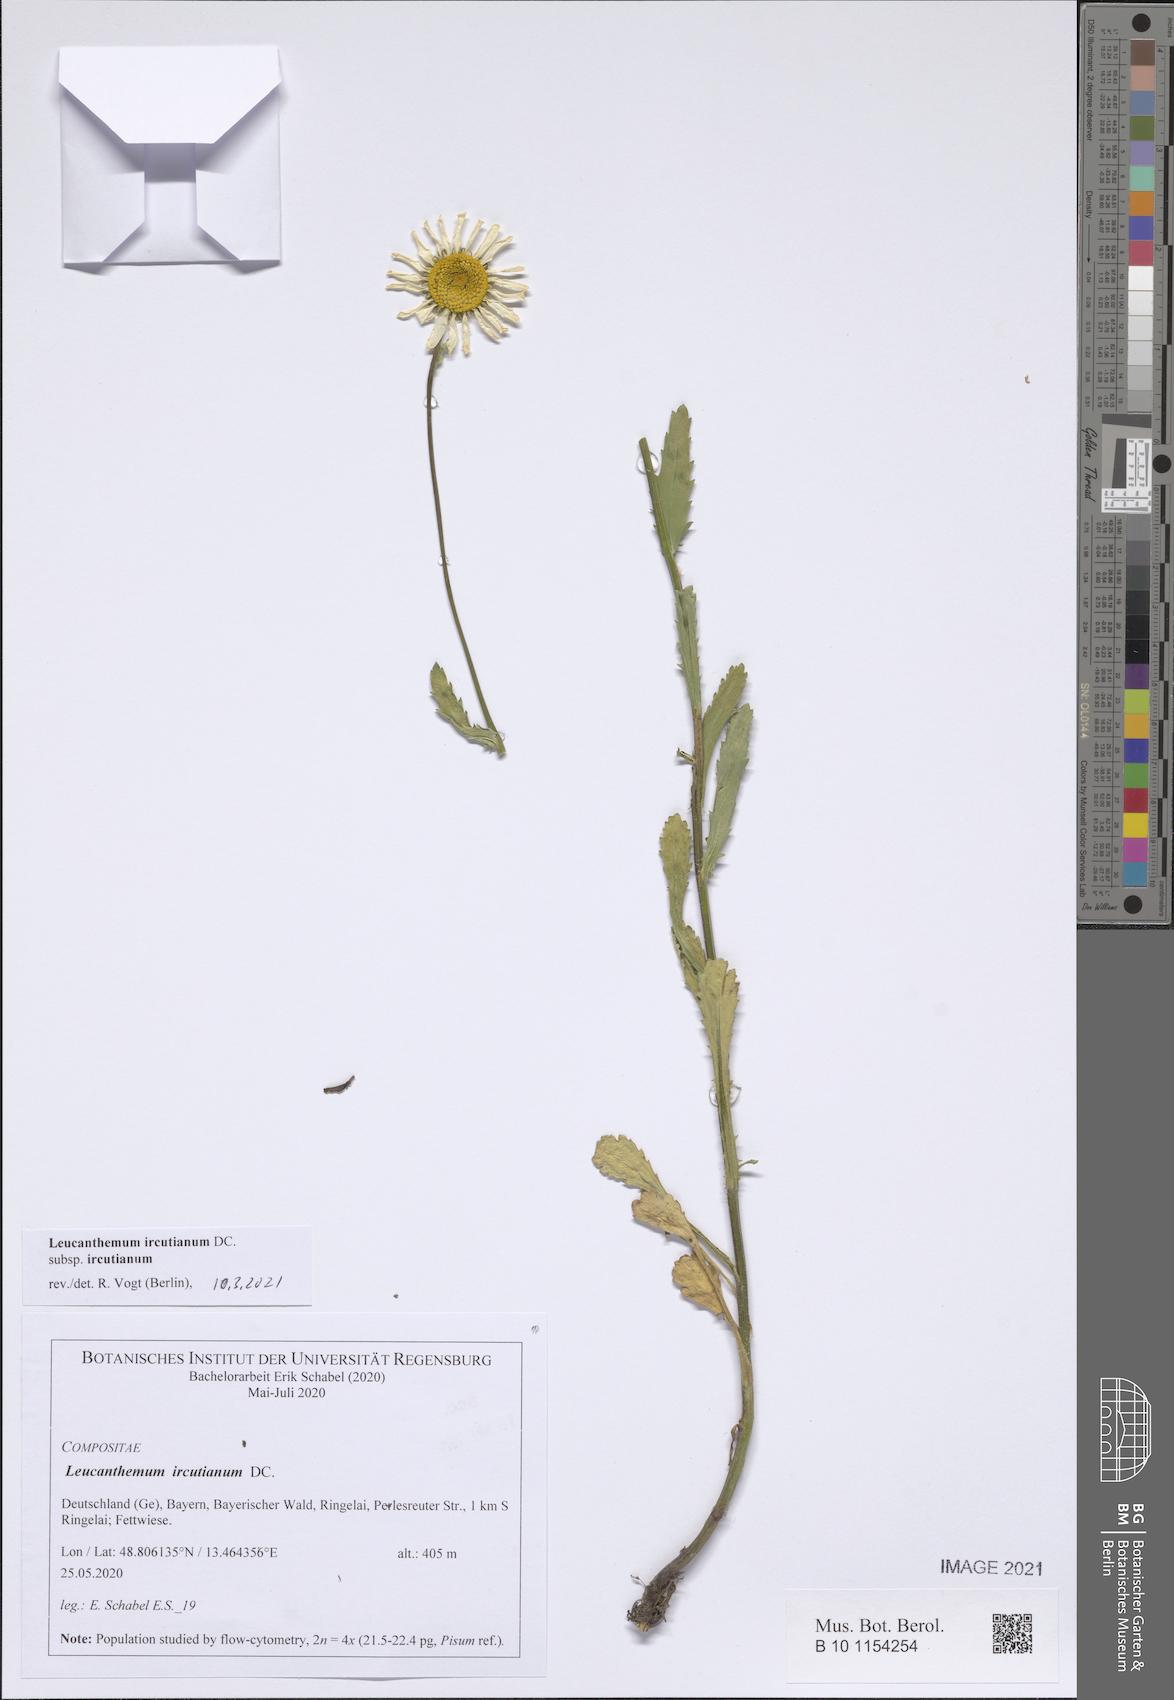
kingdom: Plantae
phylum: Tracheophyta
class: Magnoliopsida
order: Asterales
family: Asteraceae
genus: Leucanthemum
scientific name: Leucanthemum ircutianum
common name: Daisy
